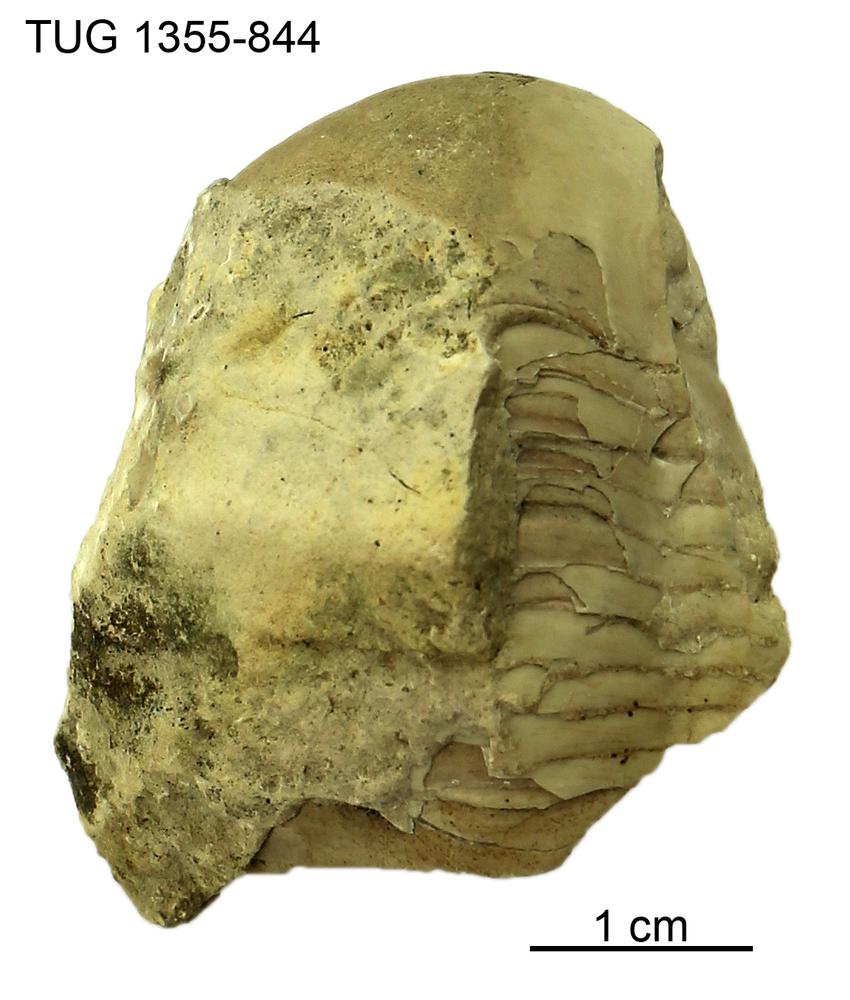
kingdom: Animalia
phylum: Arthropoda
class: Trilobita
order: Corynexochida
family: Illaenidae
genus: Illaenus
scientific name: Illaenus
